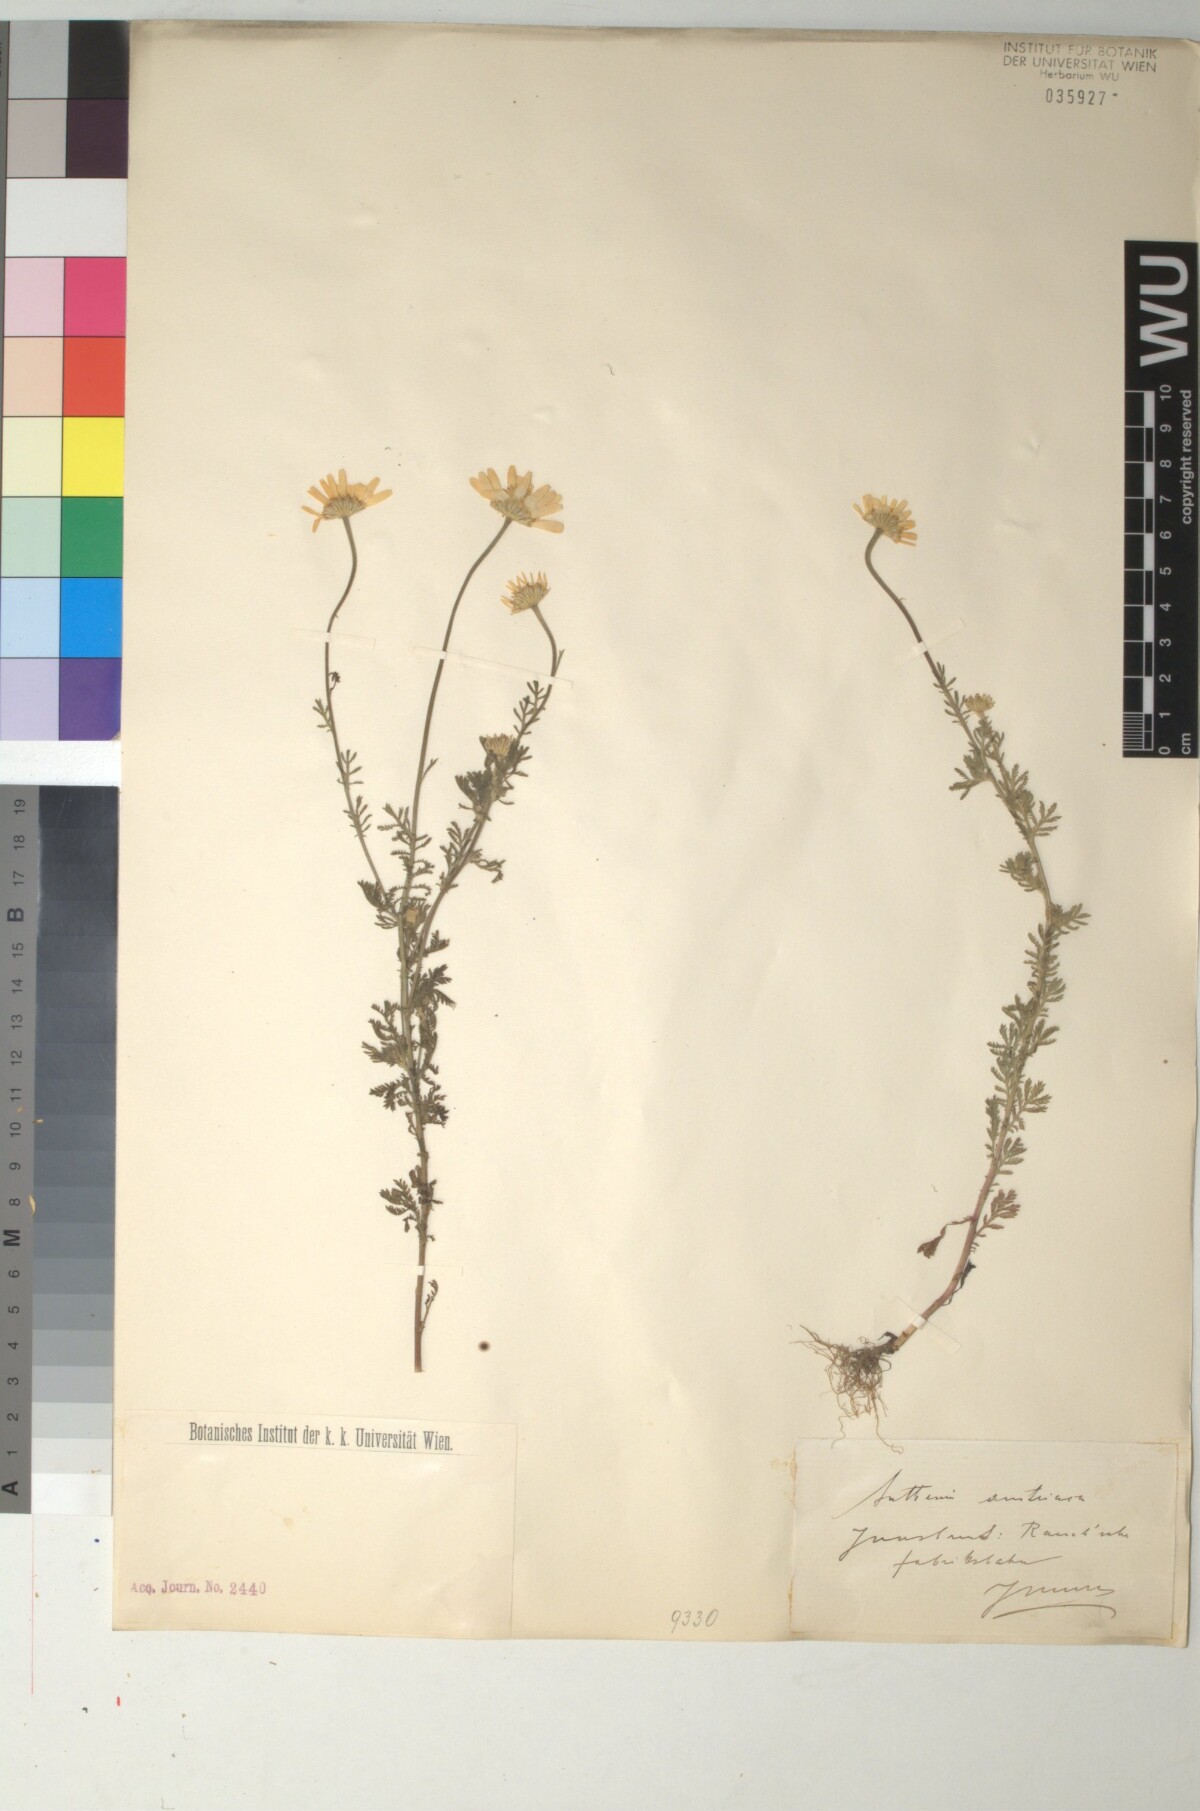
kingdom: Plantae
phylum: Tracheophyta
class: Magnoliopsida
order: Asterales
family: Asteraceae
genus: Cota
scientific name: Cota austriaca
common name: Austrian chamomile
